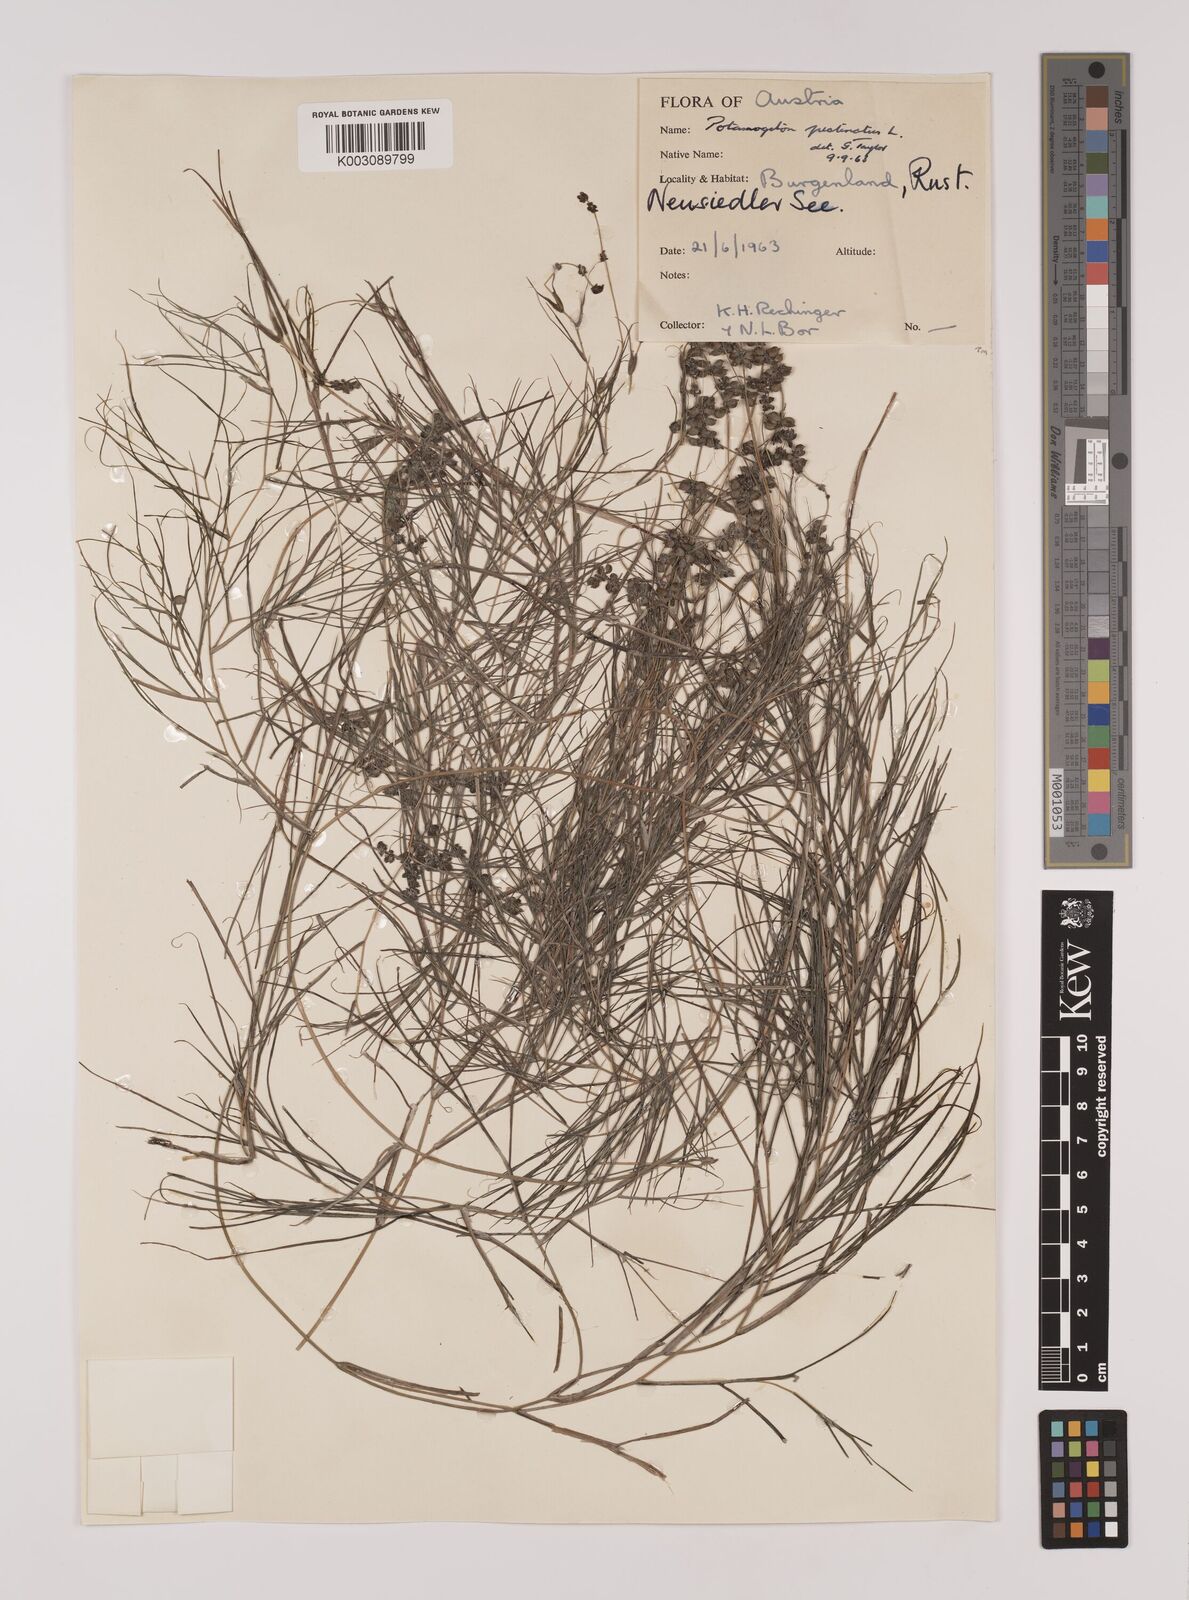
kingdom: Plantae
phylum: Tracheophyta
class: Liliopsida
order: Alismatales
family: Potamogetonaceae
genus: Stuckenia
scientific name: Stuckenia pectinata
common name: Sago pondweed
